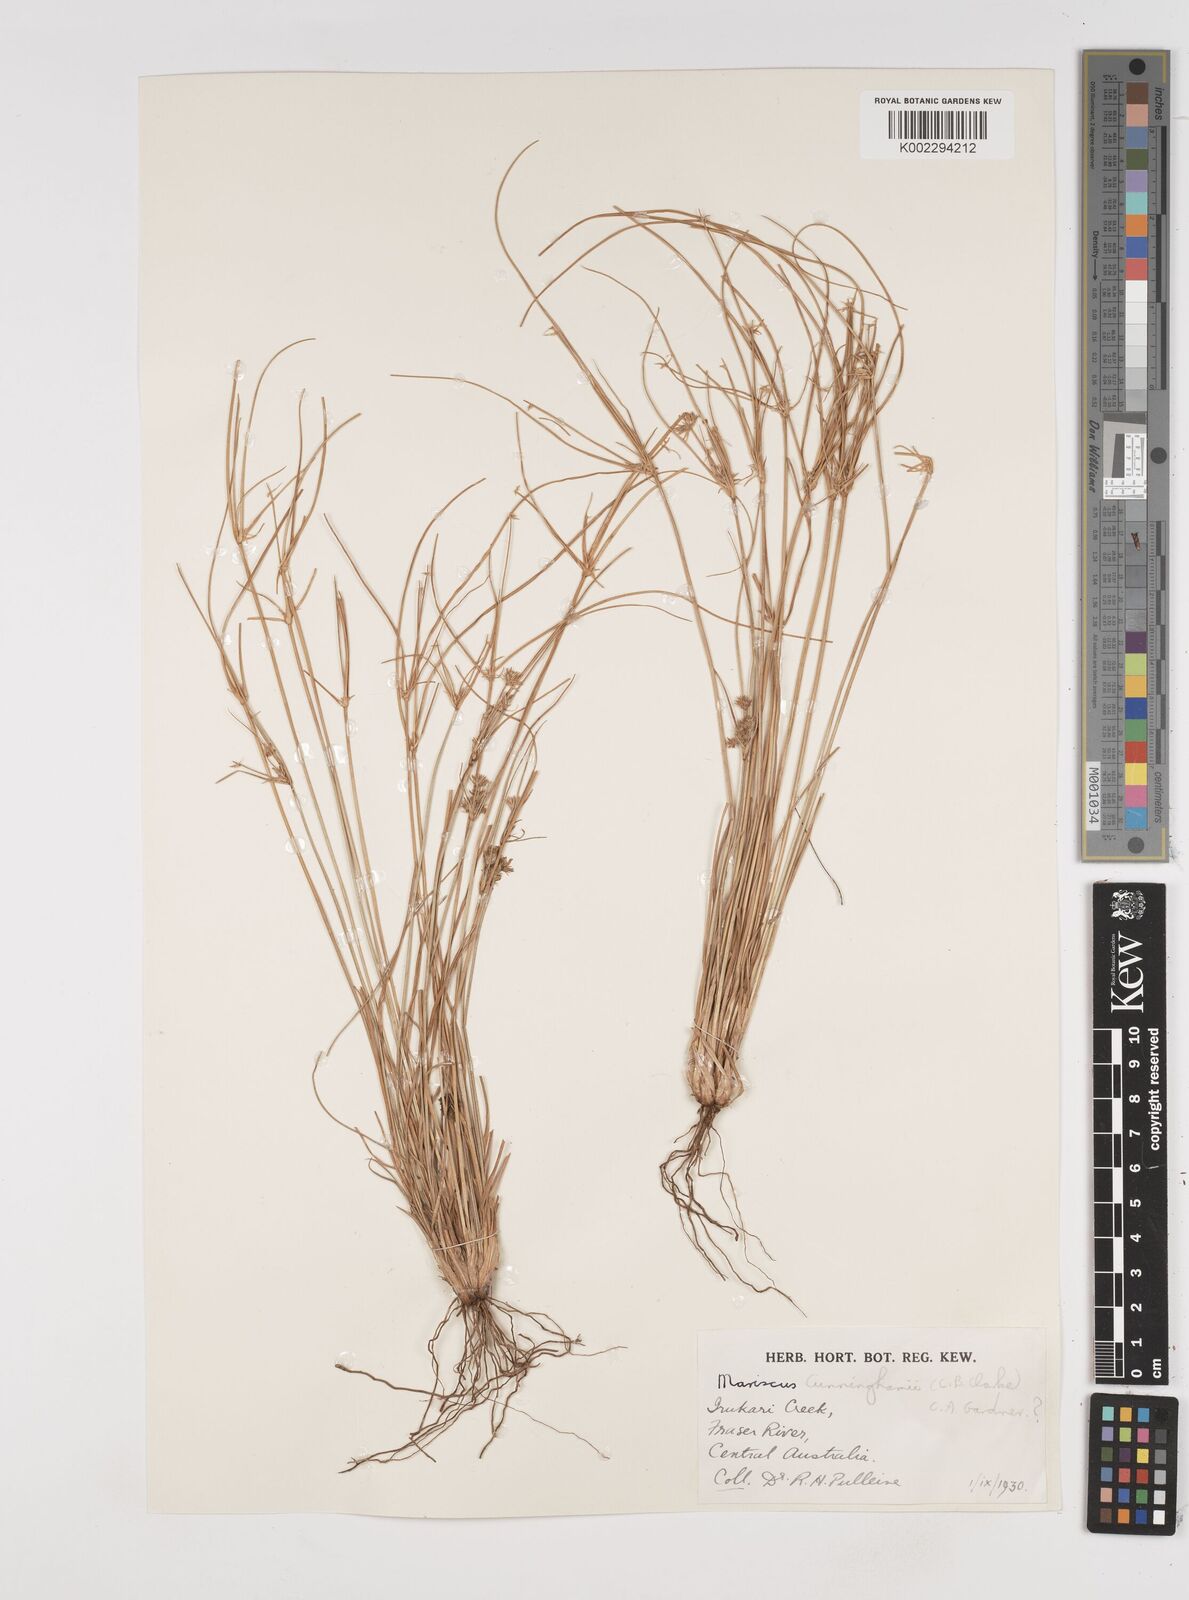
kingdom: Plantae
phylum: Tracheophyta
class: Liliopsida
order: Poales
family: Cyperaceae
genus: Cyperus
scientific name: Cyperus cunninghamii
